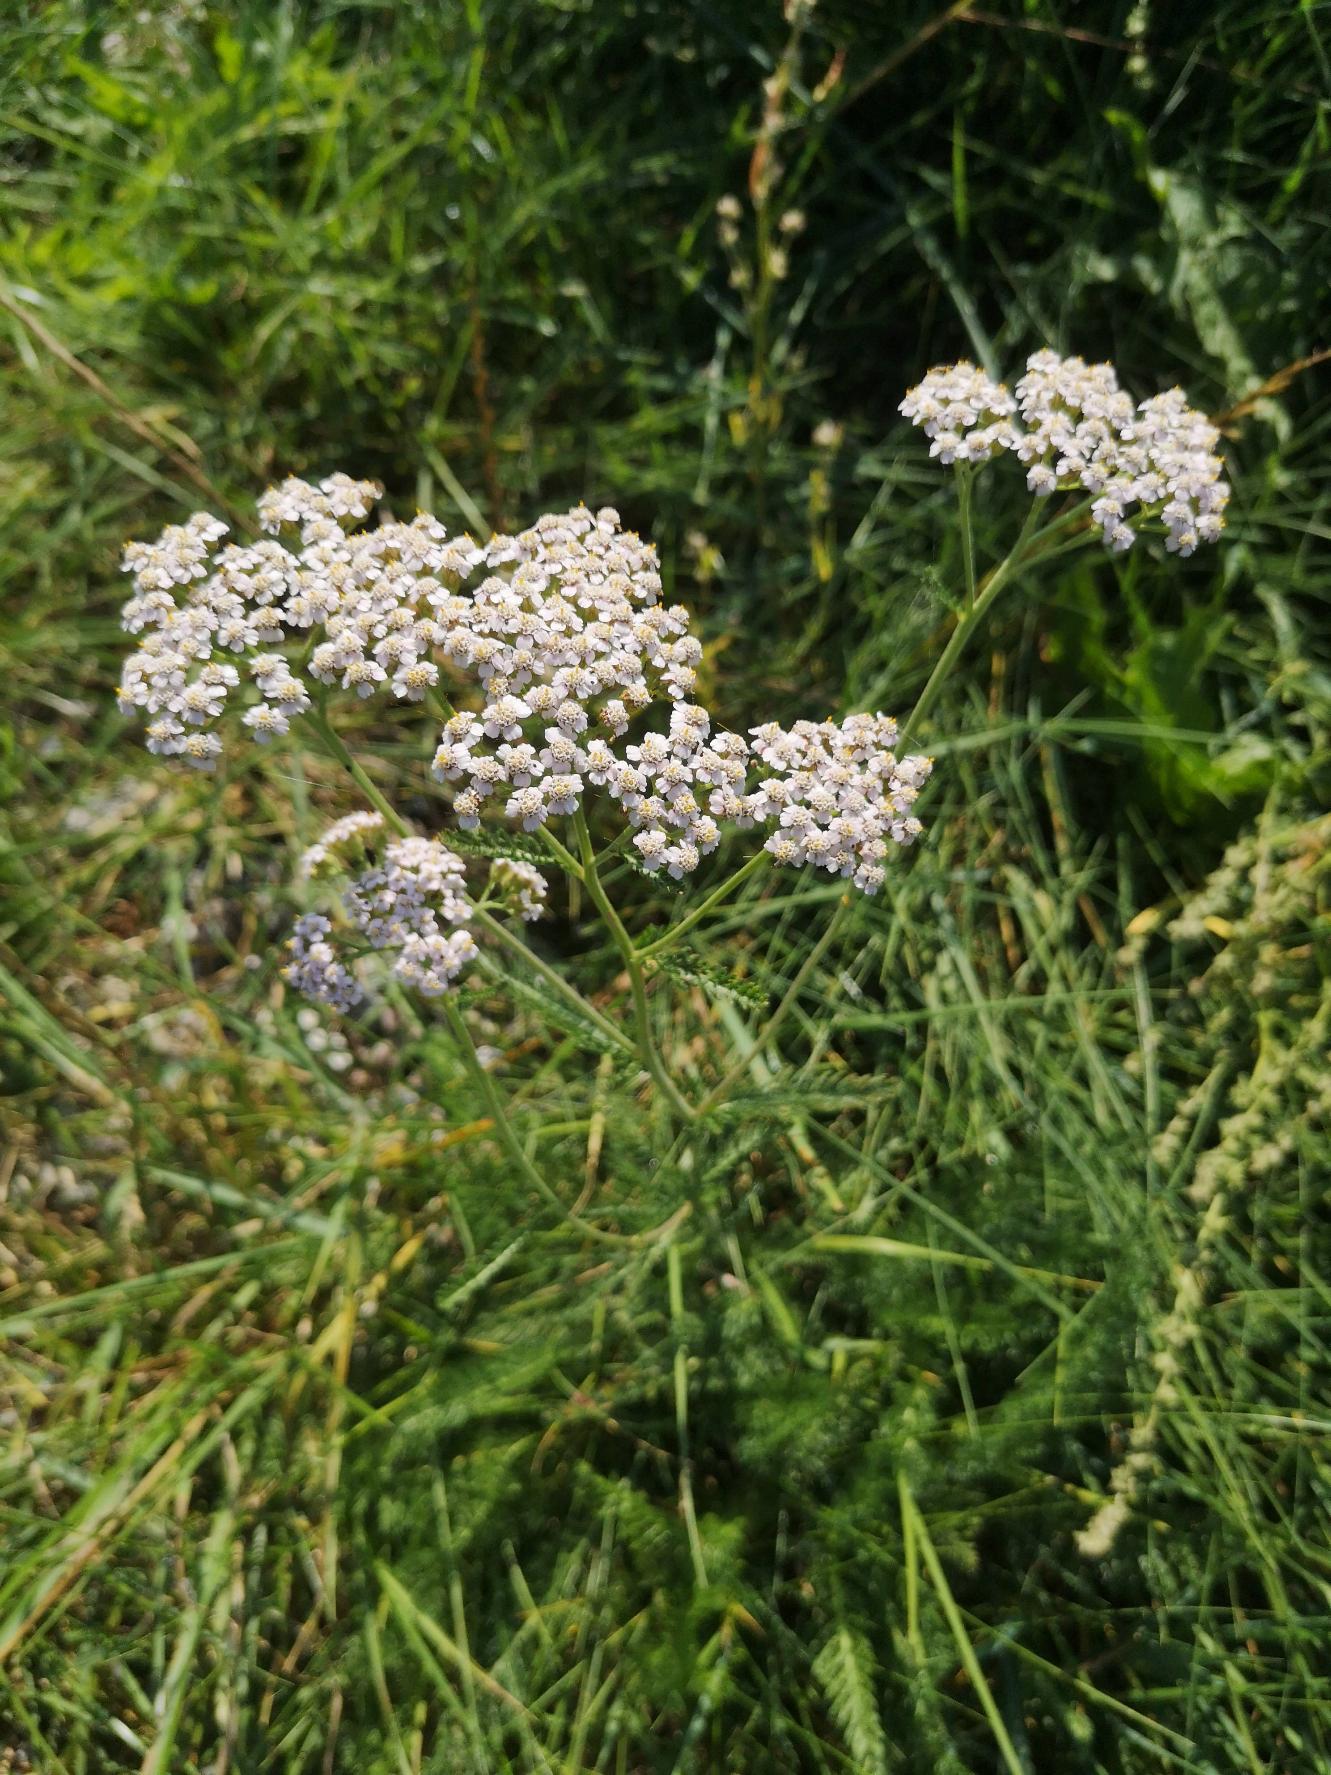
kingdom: Plantae
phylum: Tracheophyta
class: Magnoliopsida
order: Asterales
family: Asteraceae
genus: Achillea
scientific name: Achillea millefolium
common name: Almindelig røllike
